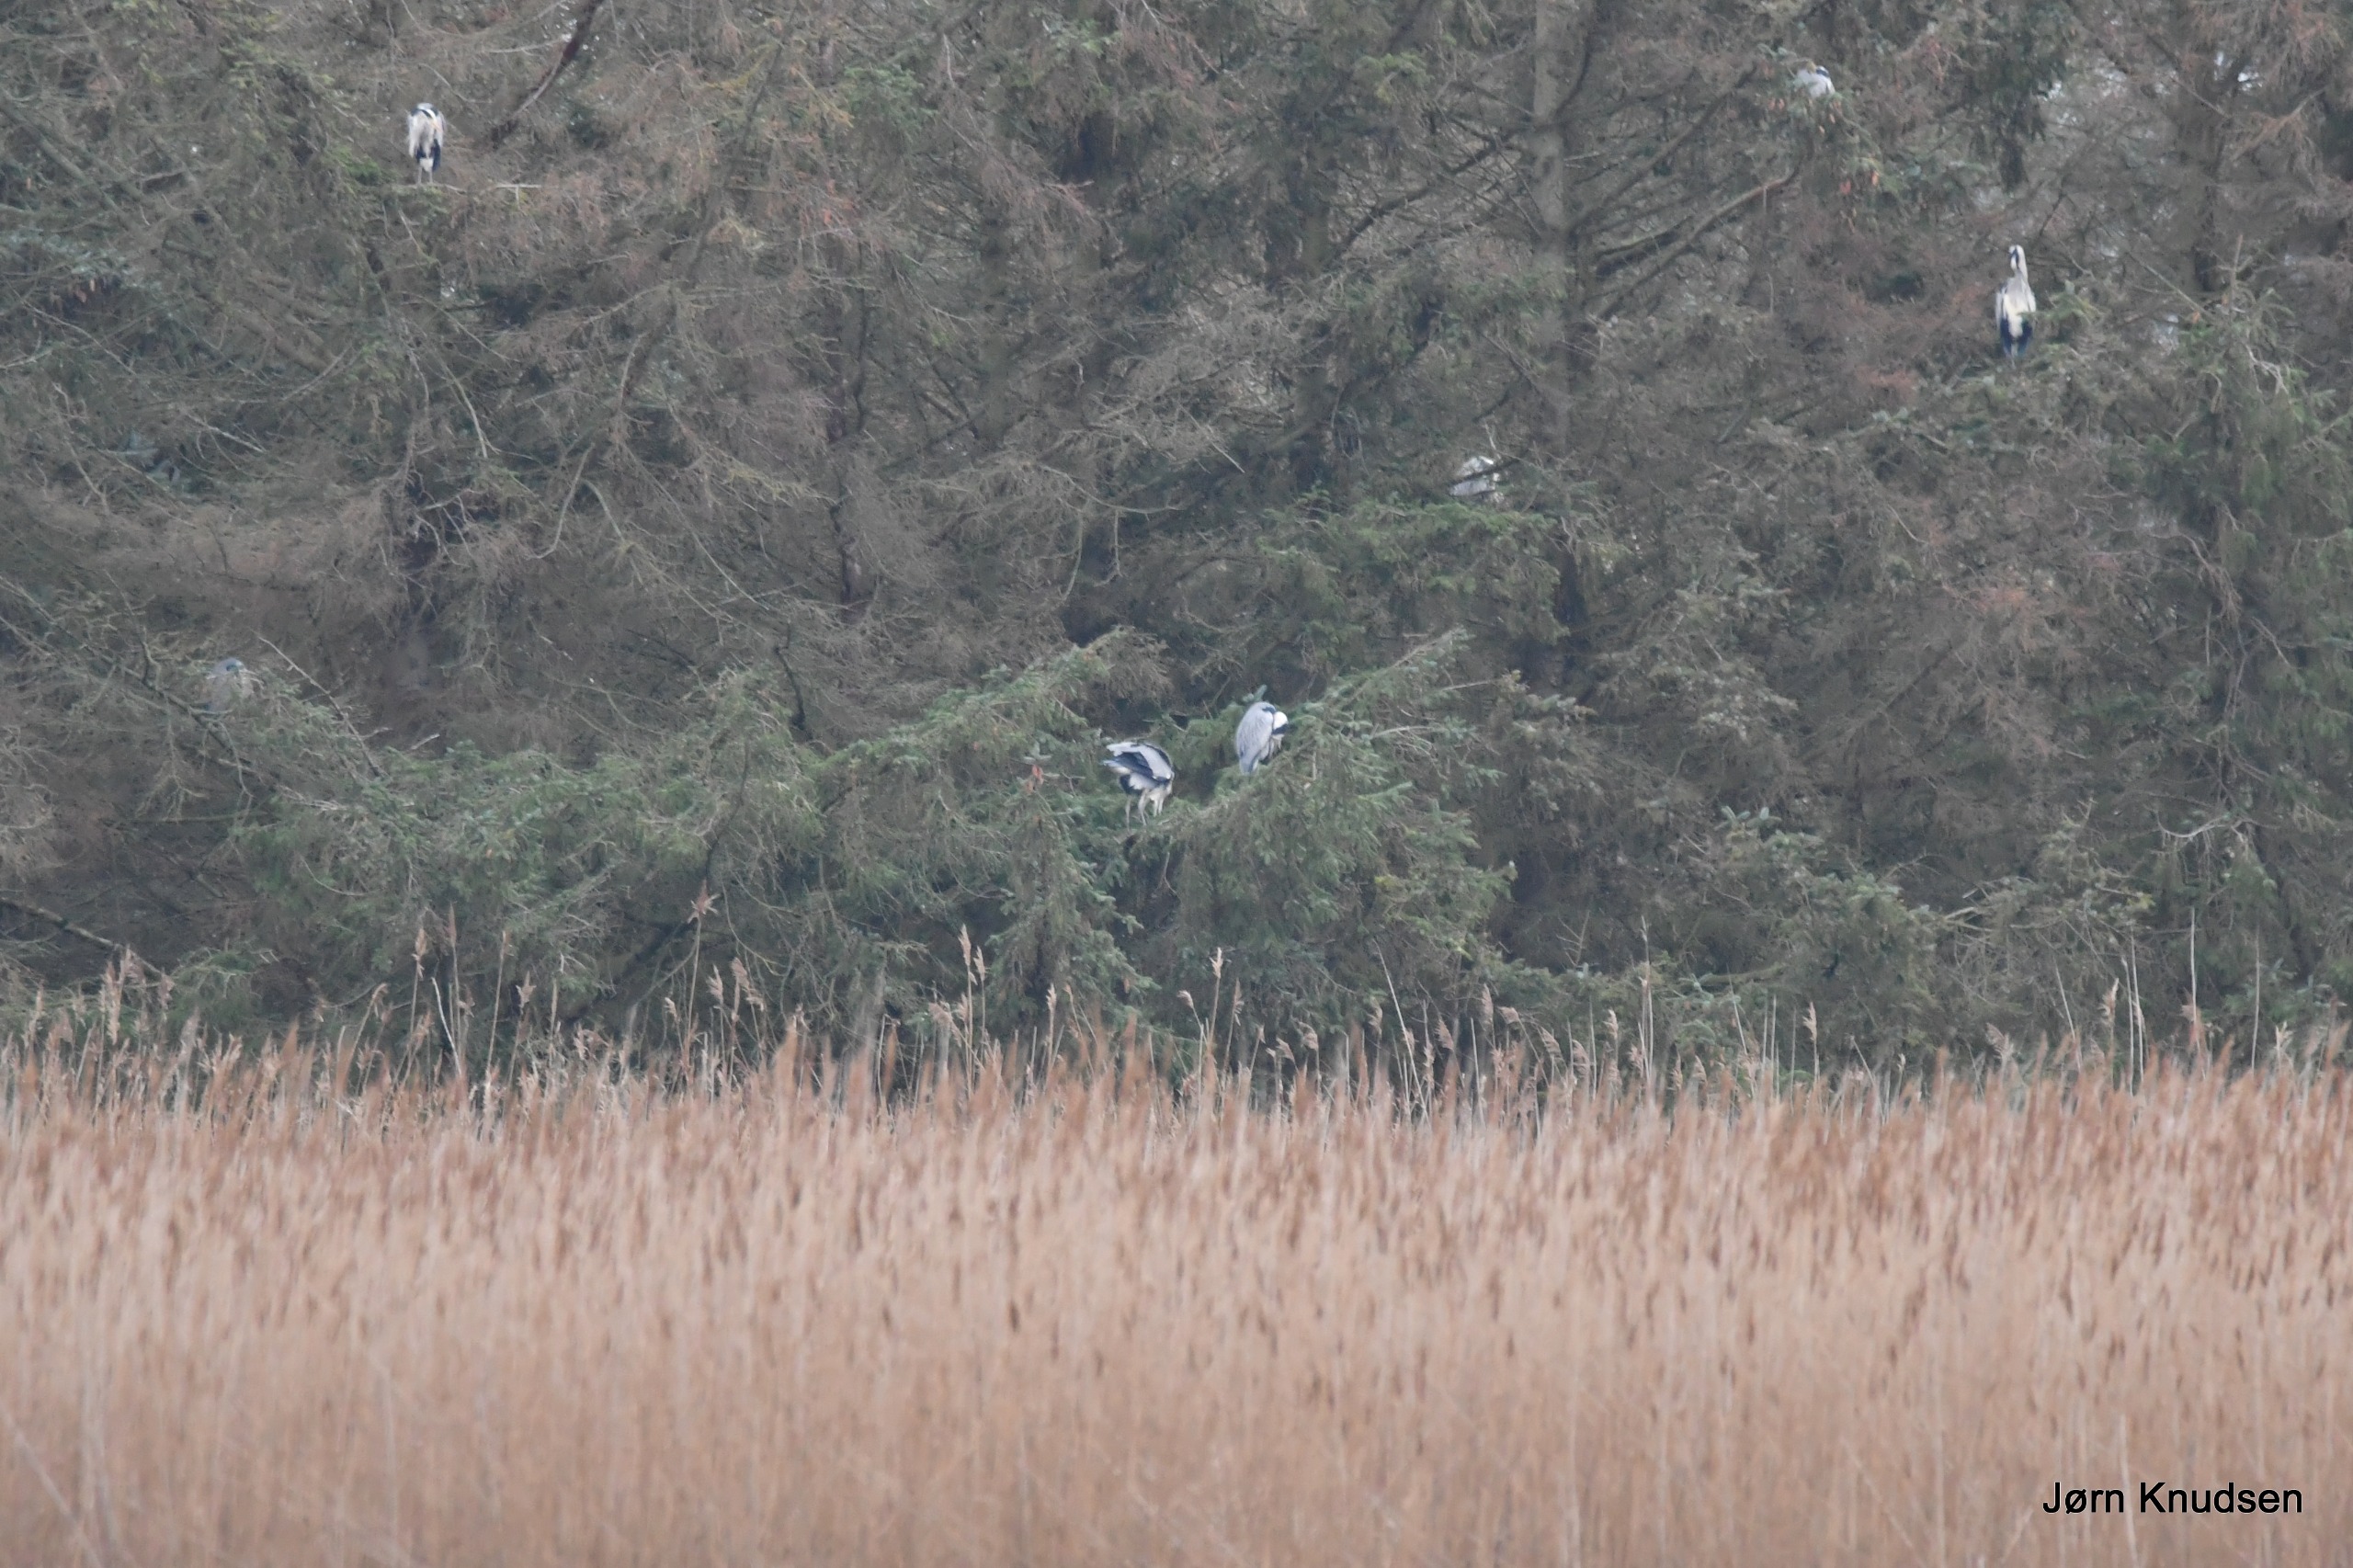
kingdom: Animalia
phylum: Chordata
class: Aves
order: Pelecaniformes
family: Ardeidae
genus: Ardea
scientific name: Ardea cinerea
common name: Fiskehejre
